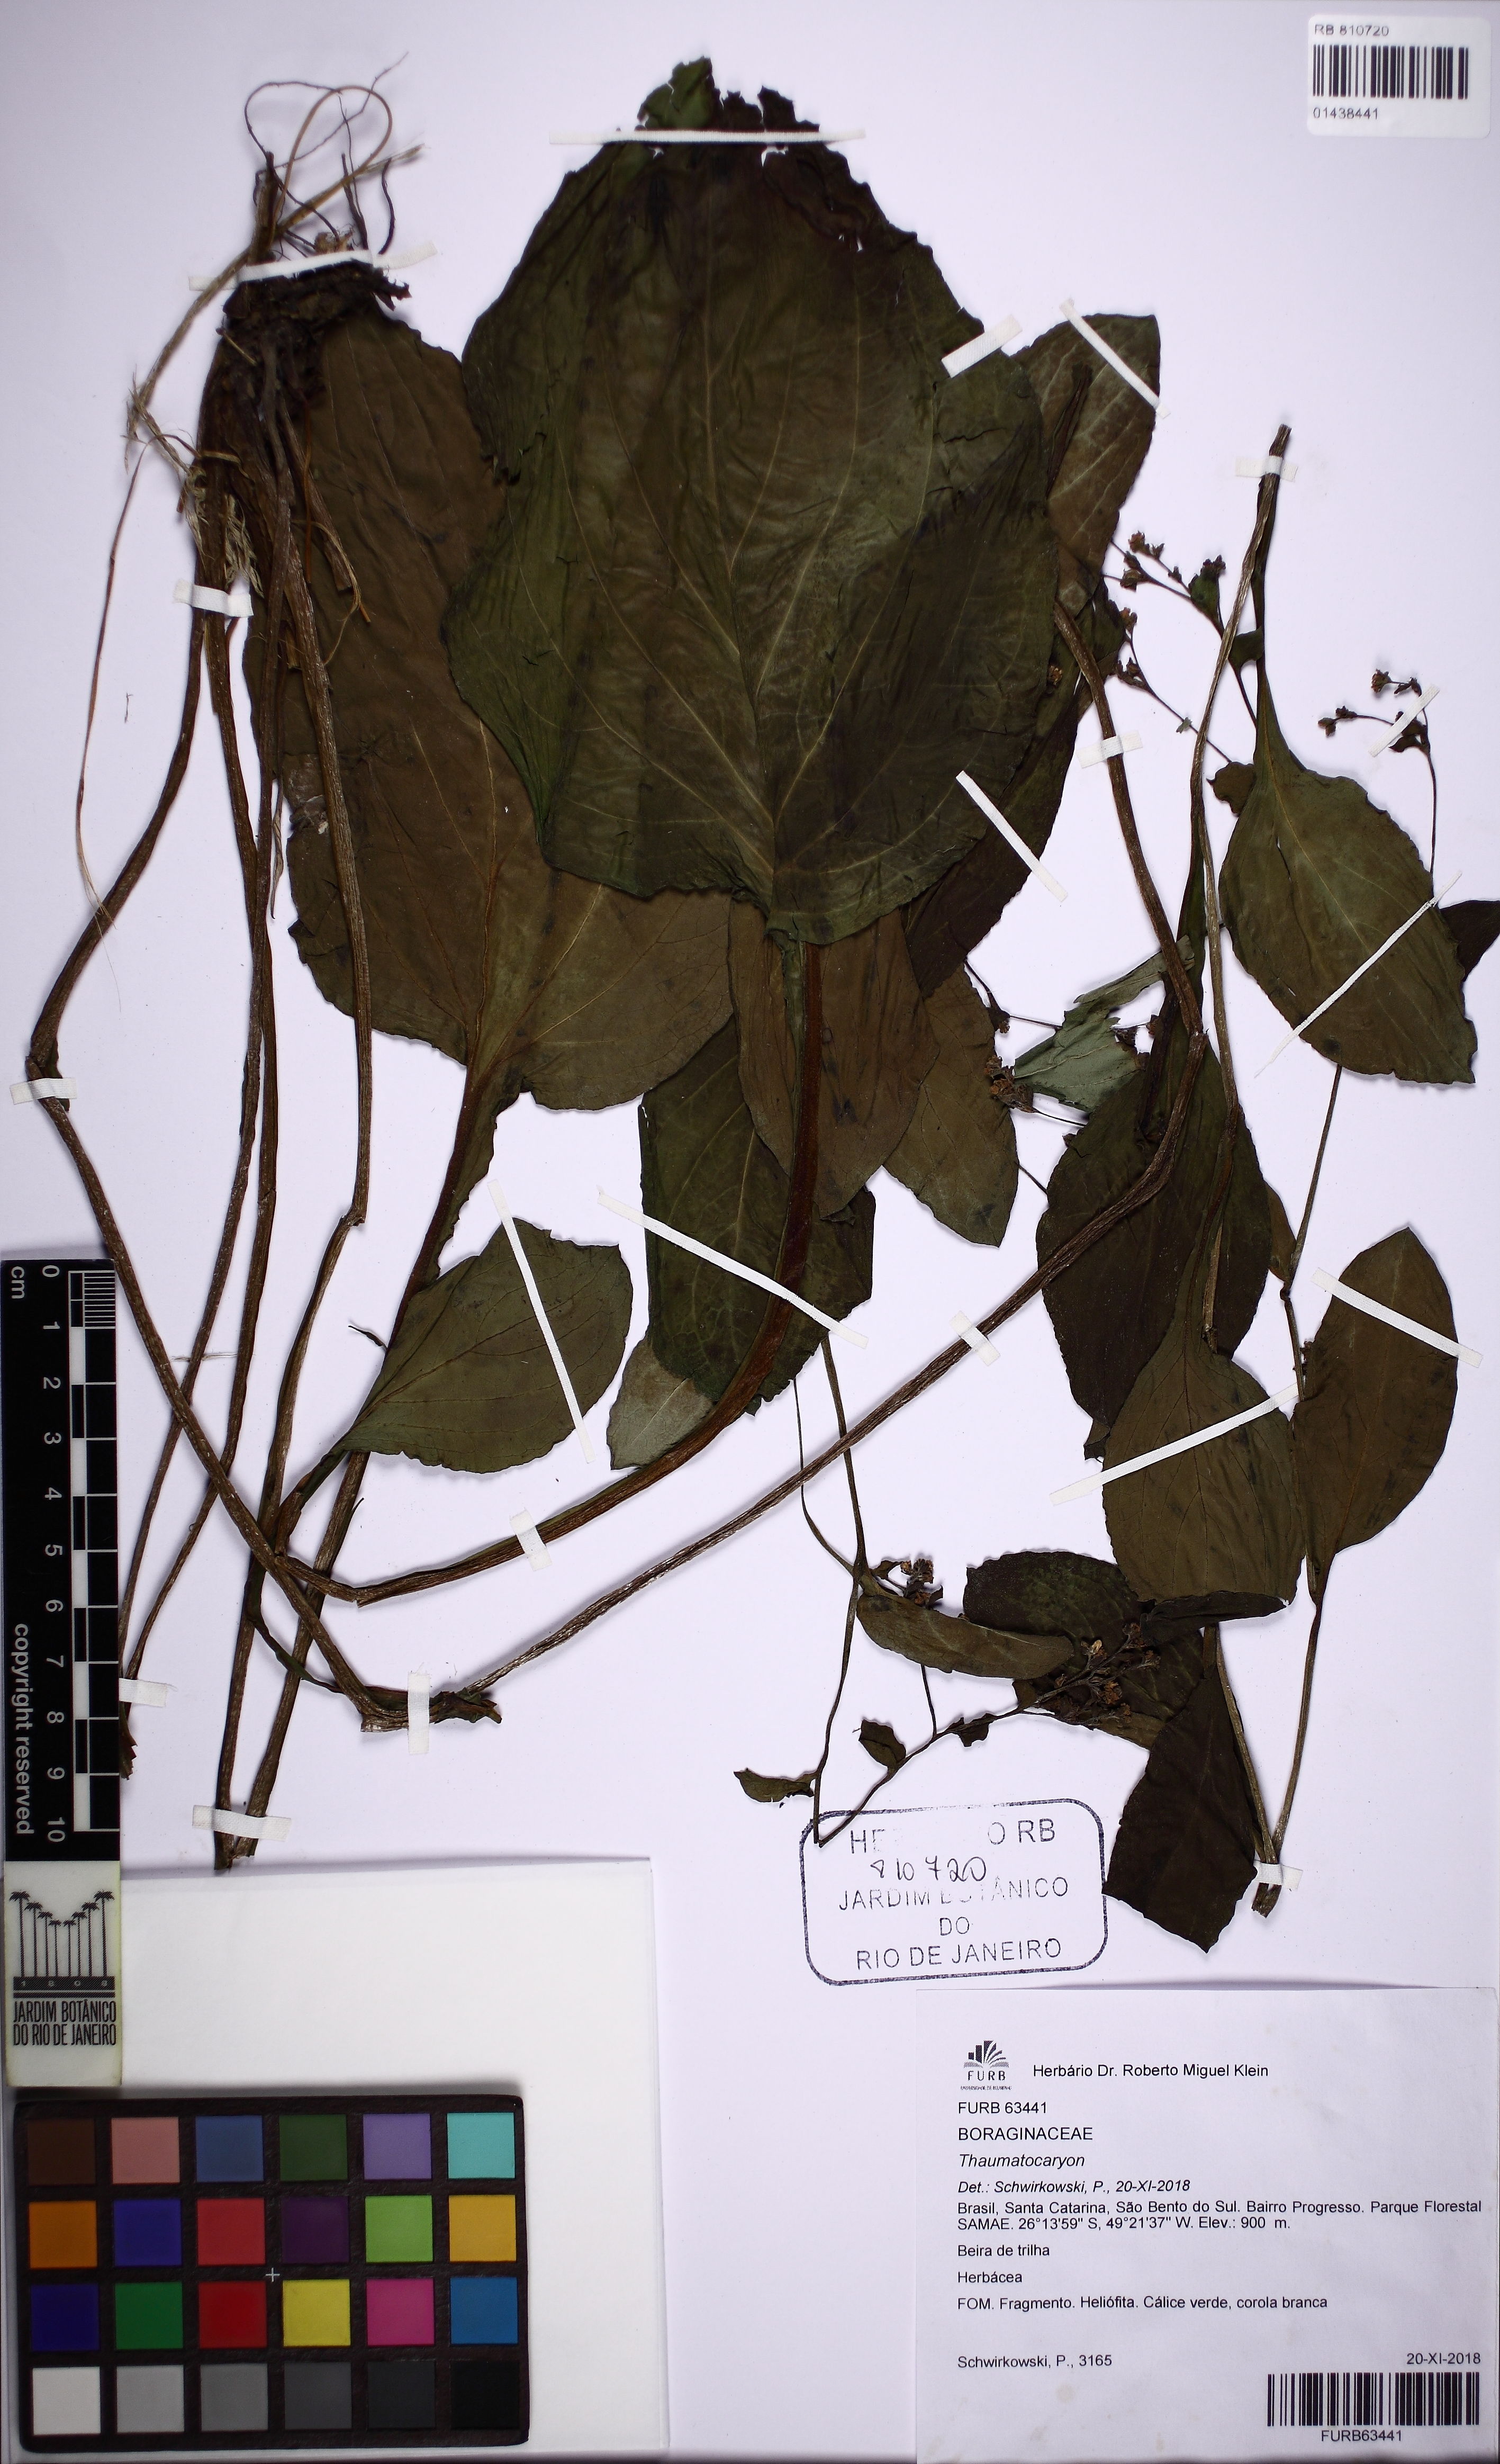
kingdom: Plantae
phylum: Tracheophyta
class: Magnoliopsida
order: Boraginales
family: Boraginaceae
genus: Thaumatocaryon
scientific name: Thaumatocaryon
